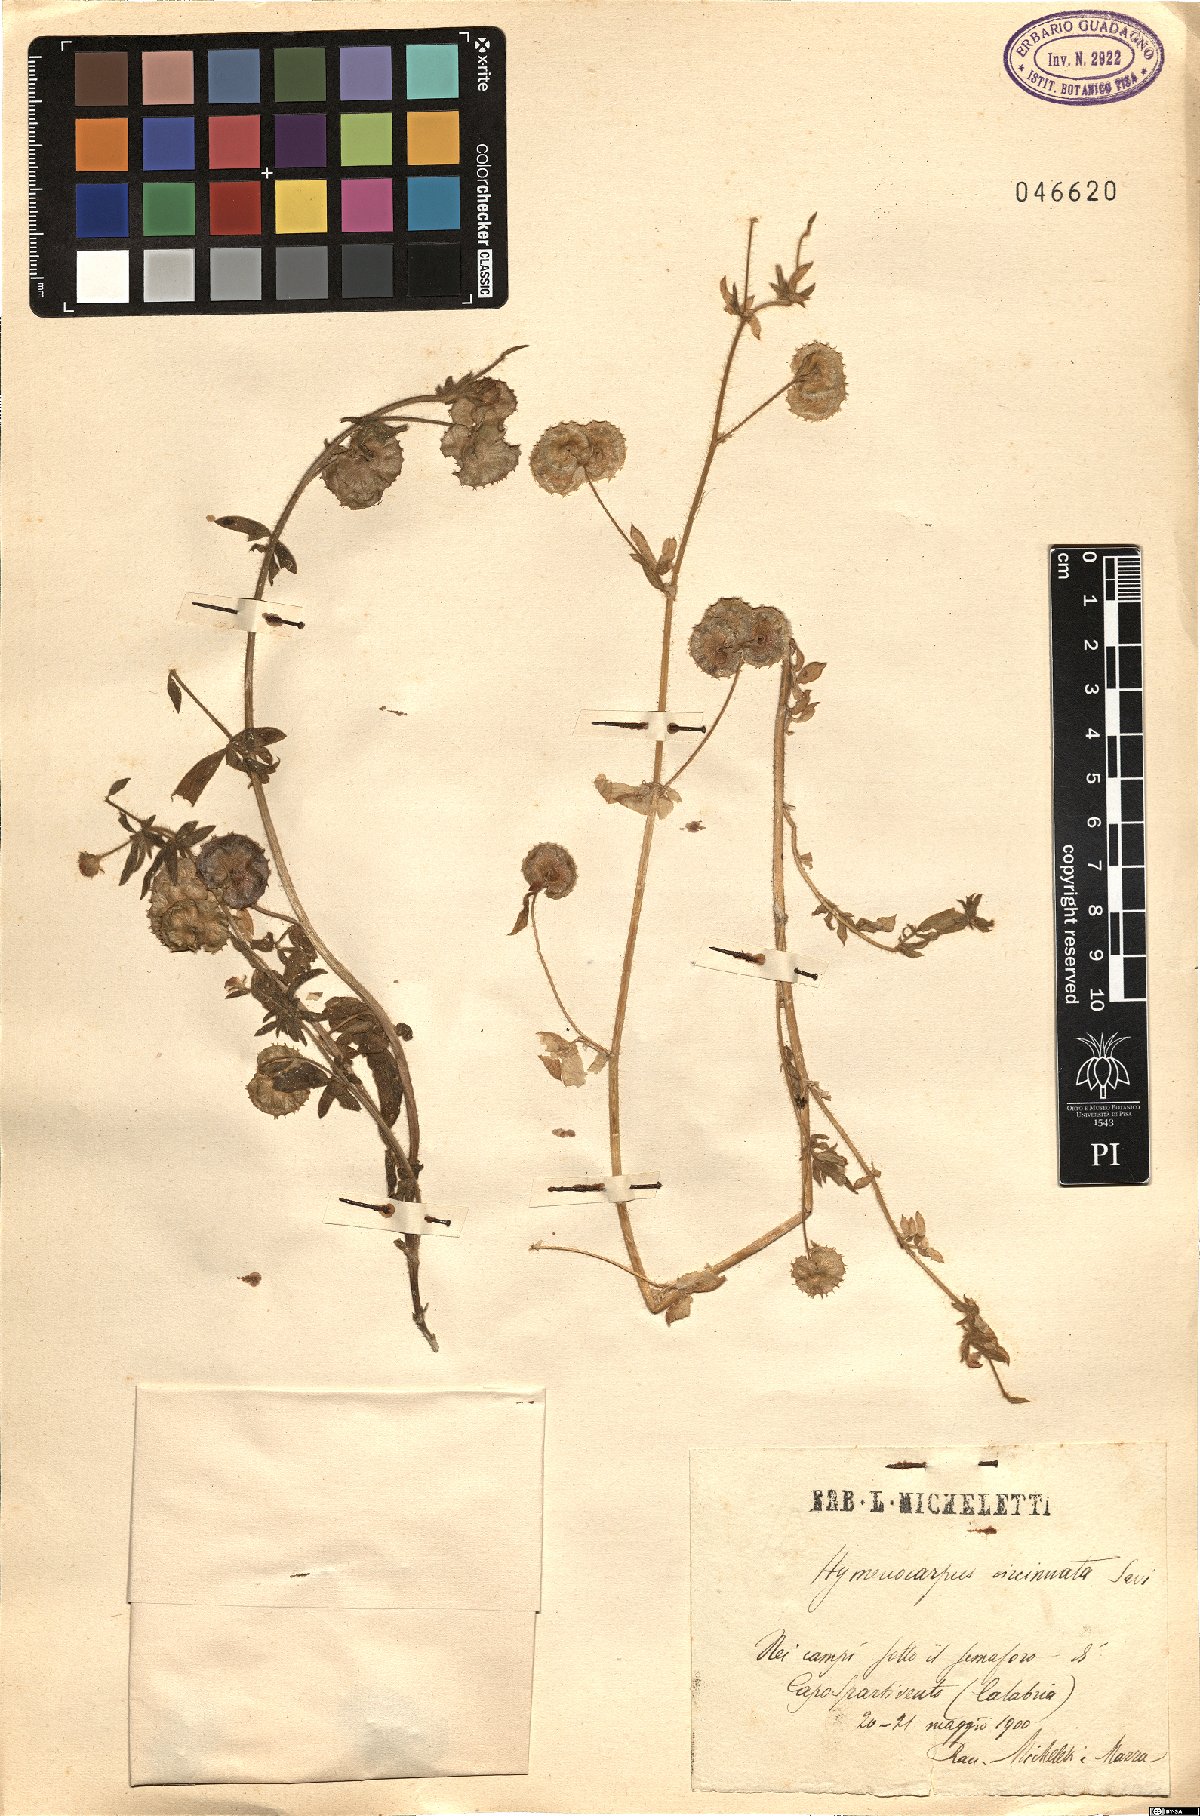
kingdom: Plantae
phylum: Tracheophyta
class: Magnoliopsida
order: Fabales
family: Fabaceae
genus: Anthyllis
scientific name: Anthyllis circinnata
